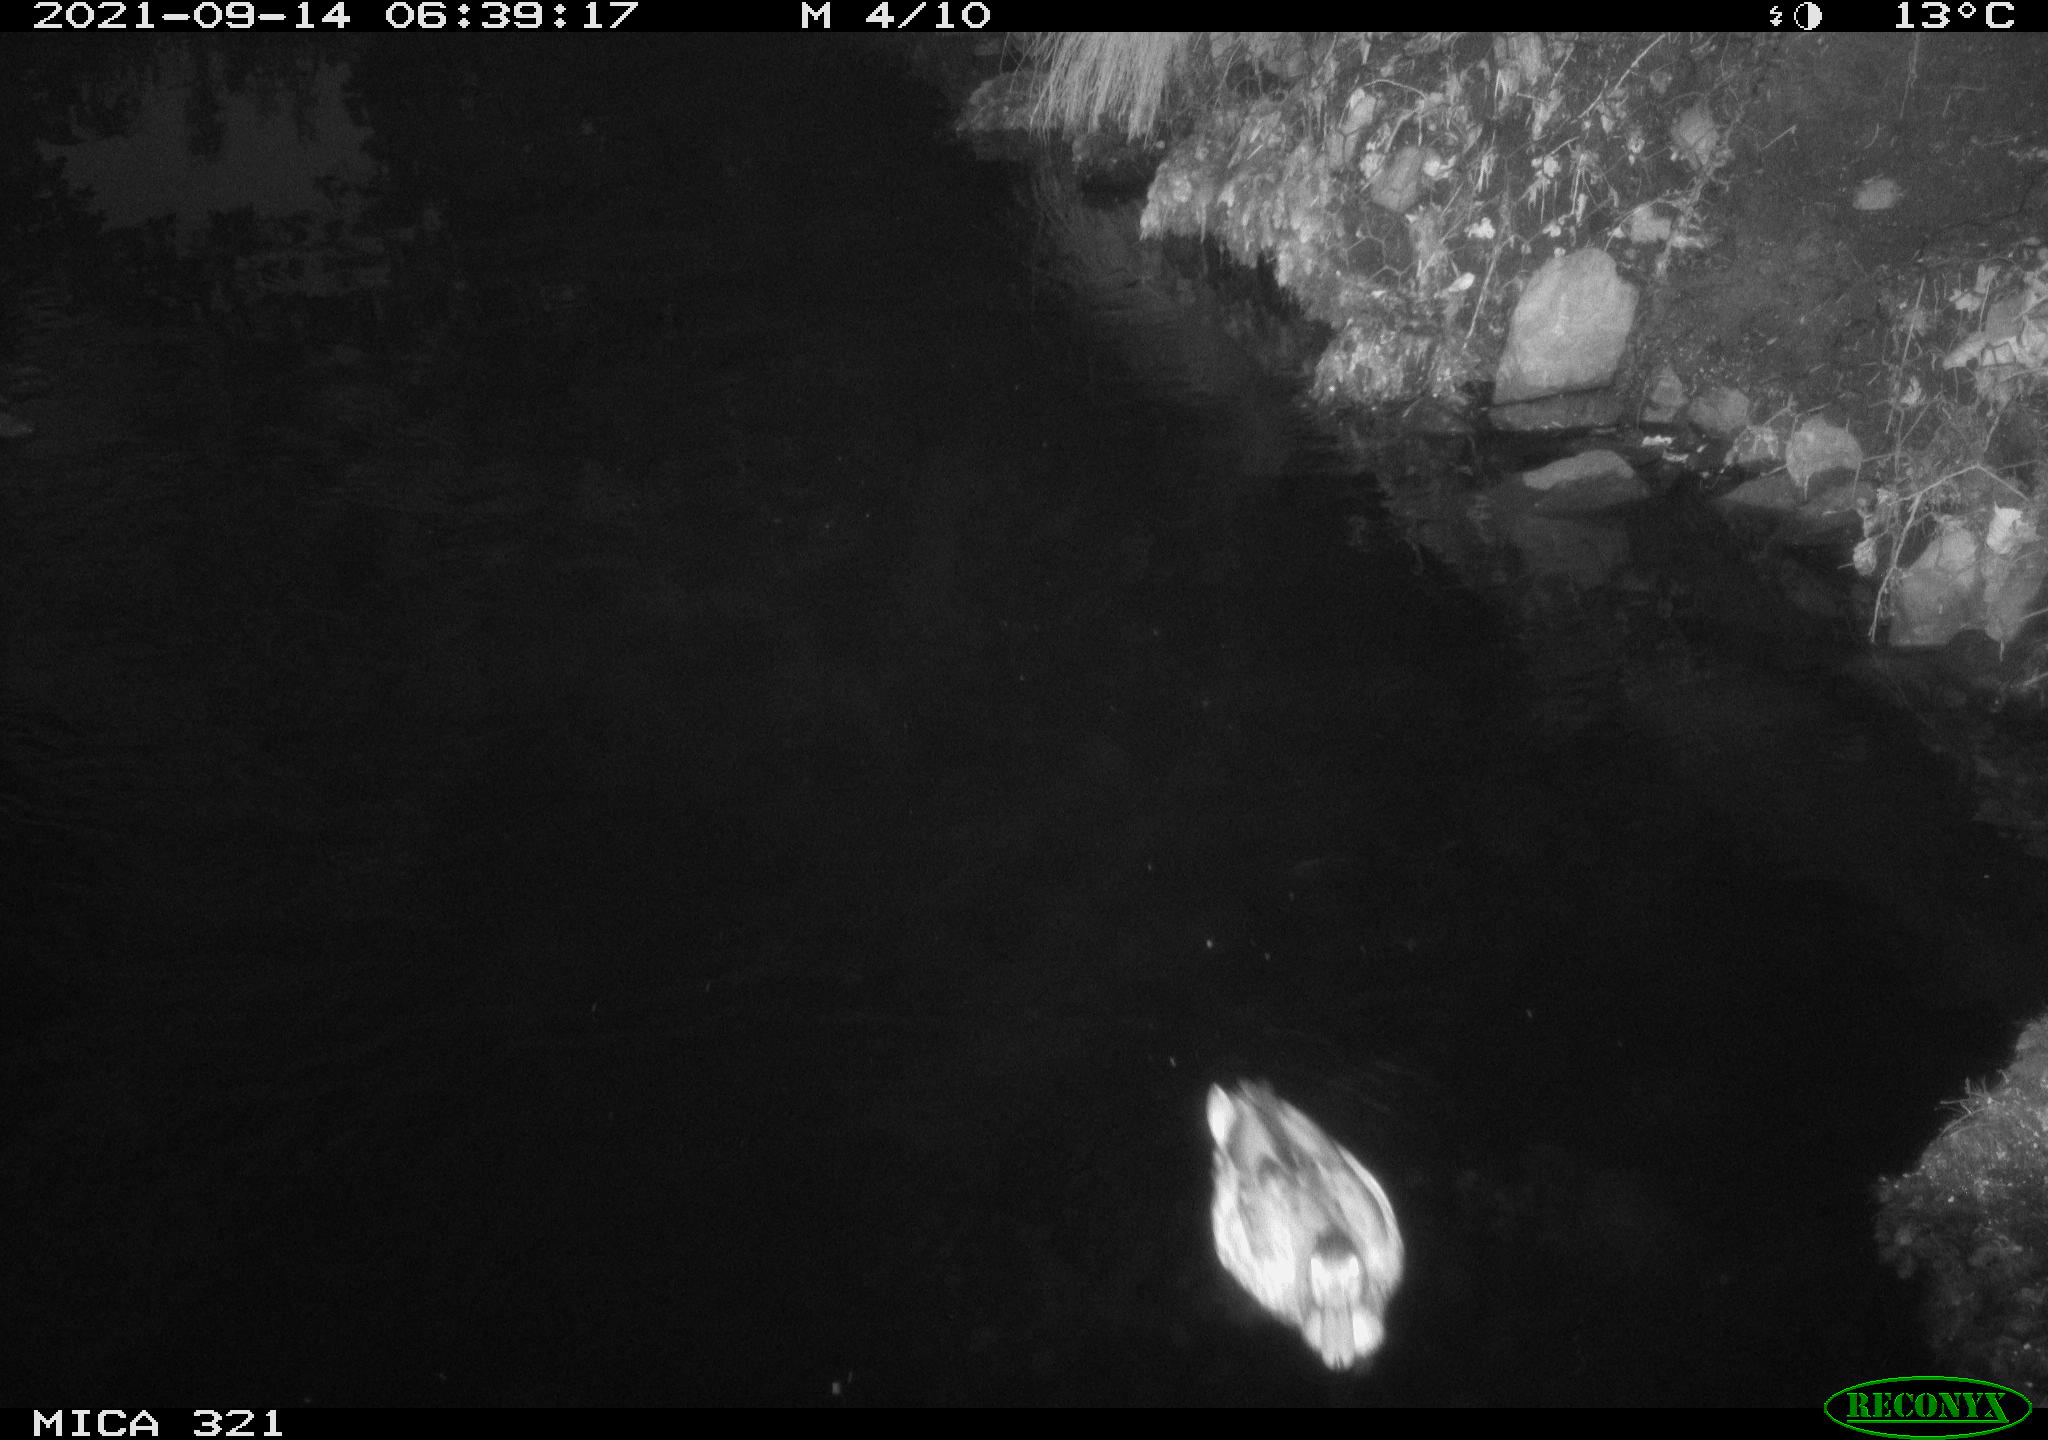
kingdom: Animalia
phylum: Chordata
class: Aves
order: Anseriformes
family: Anatidae
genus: Anas
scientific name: Anas platyrhynchos
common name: Mallard
